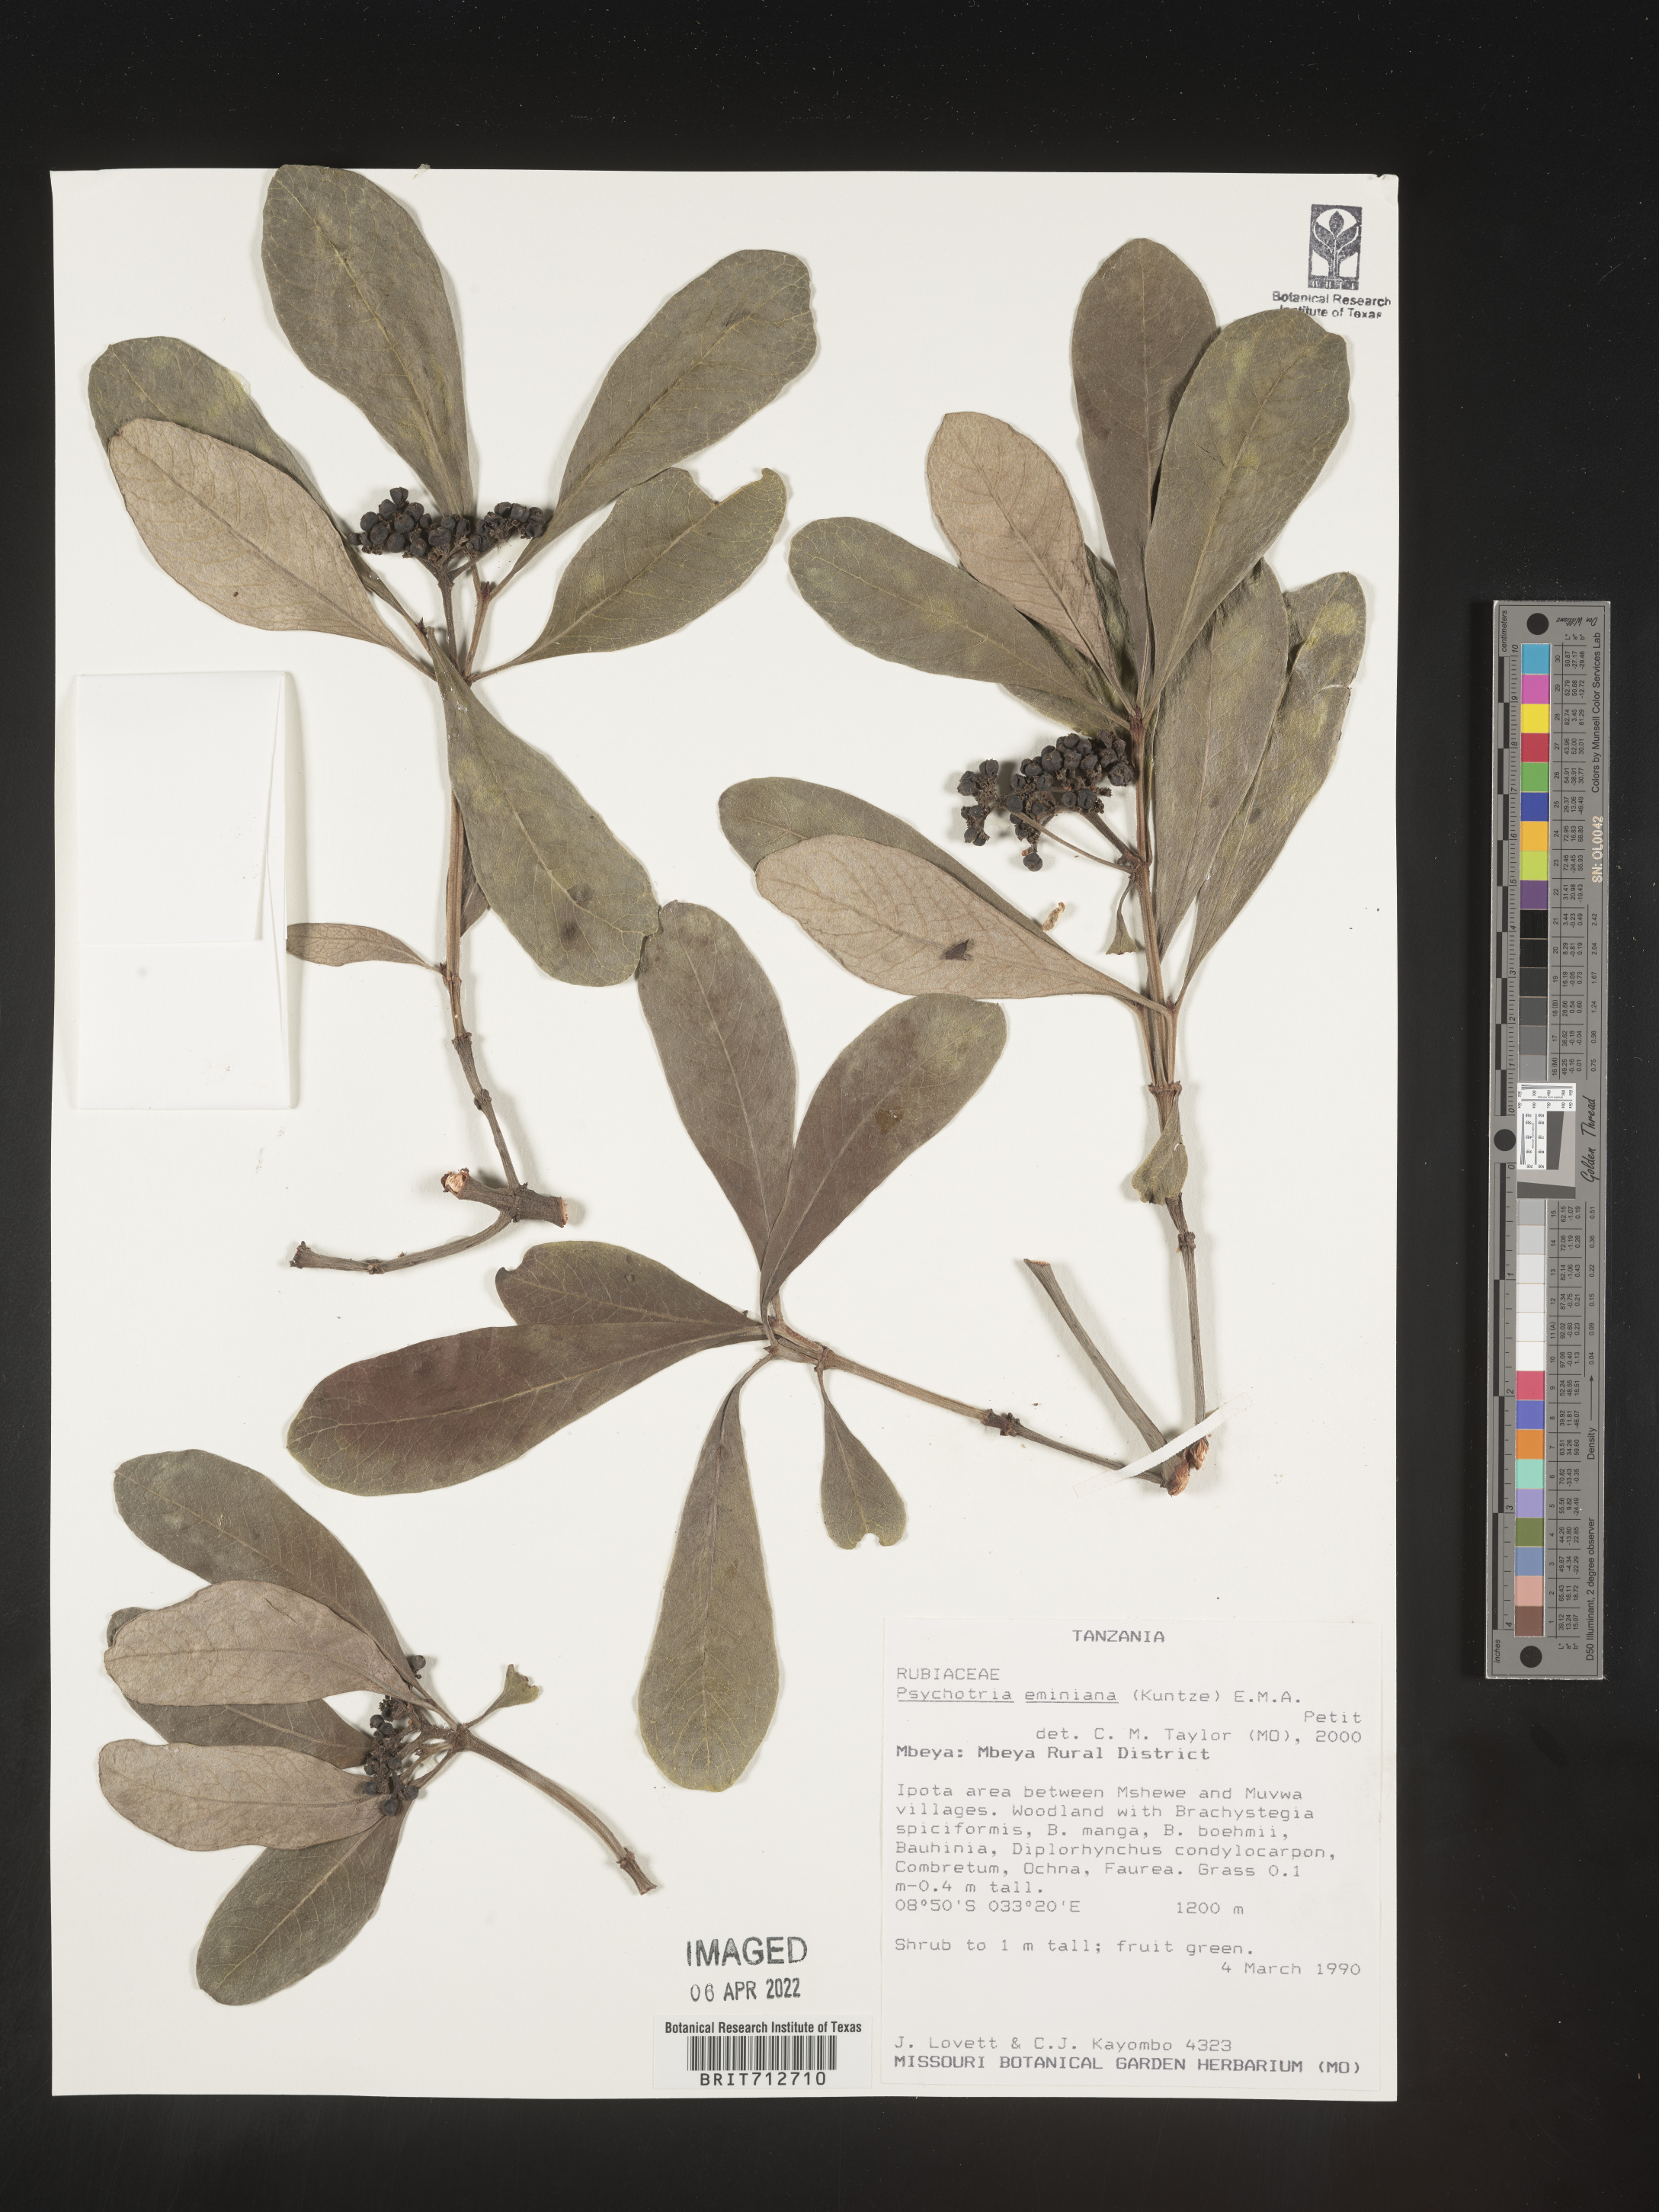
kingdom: Plantae
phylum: Tracheophyta
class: Magnoliopsida
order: Gentianales
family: Rubiaceae
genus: Psychotria
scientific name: Psychotria eminiana
